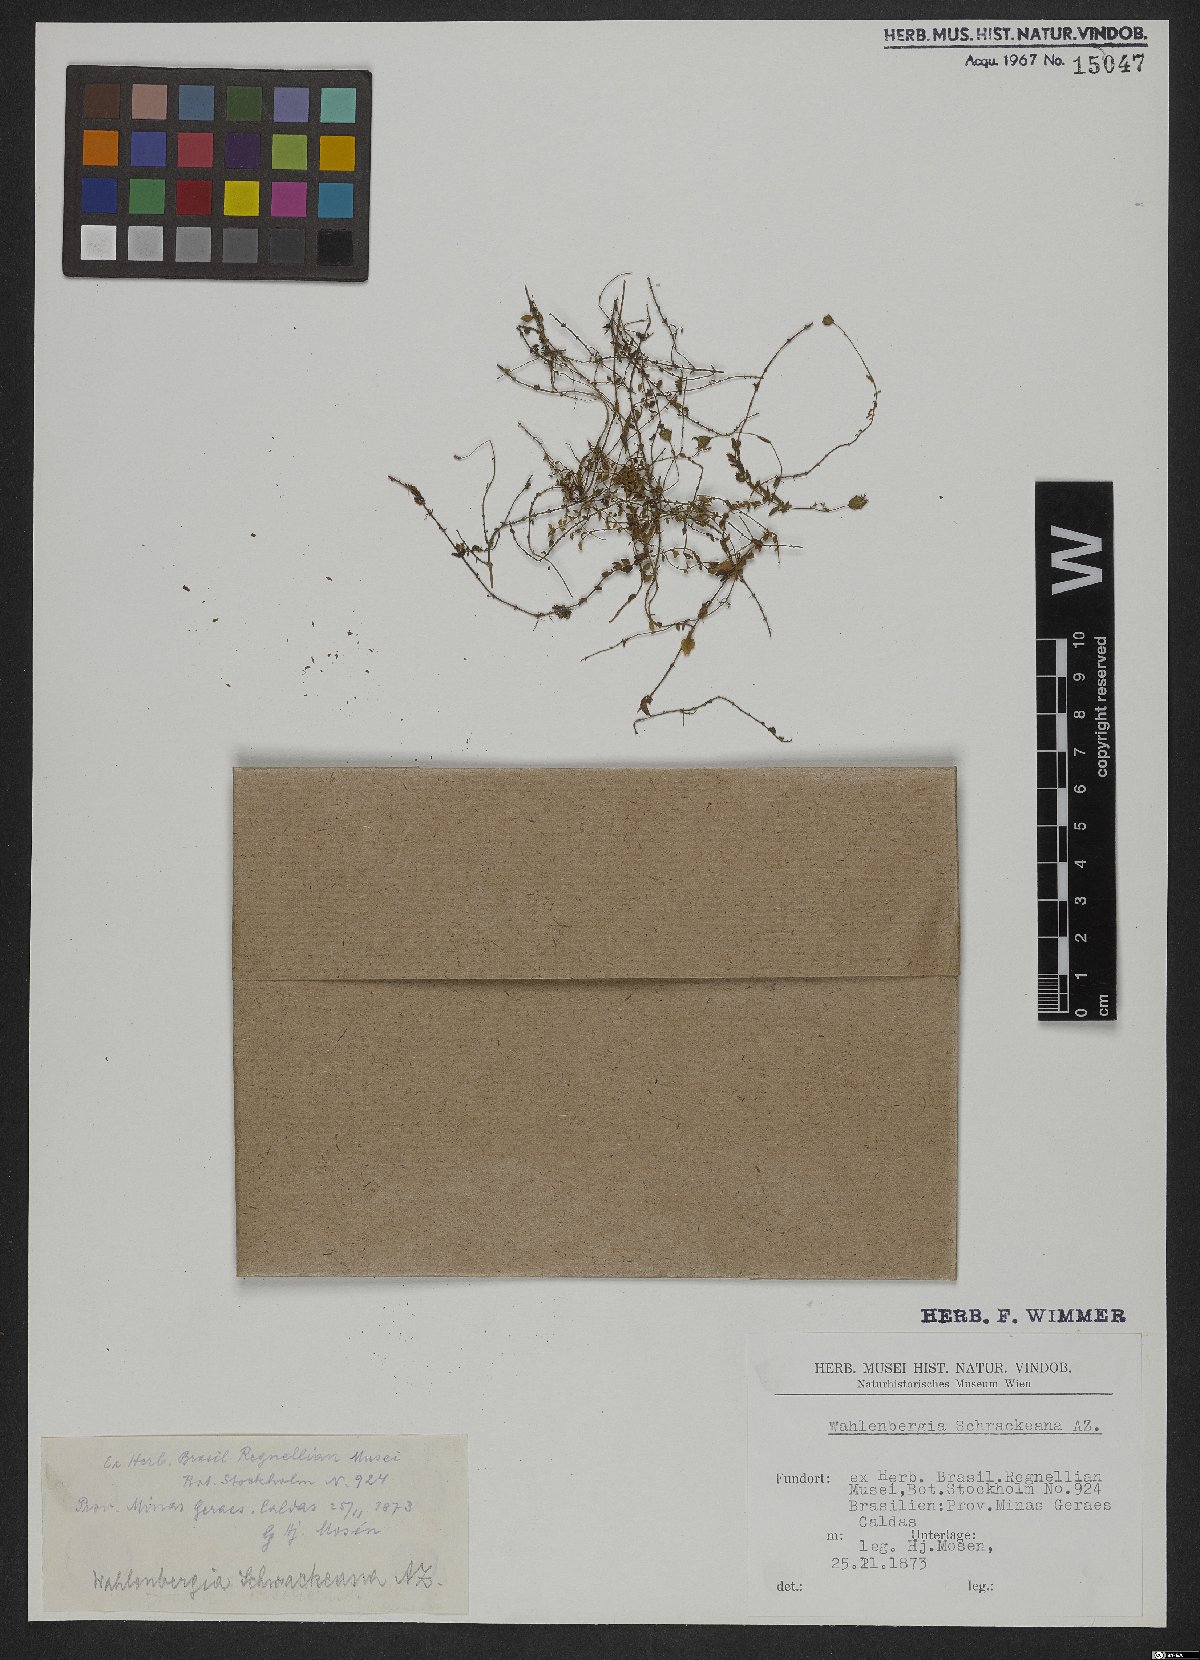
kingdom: Plantae
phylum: Tracheophyta
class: Magnoliopsida
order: Asterales
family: Campanulaceae
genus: Wahlenbergia
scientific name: Wahlenbergia schwackeana
